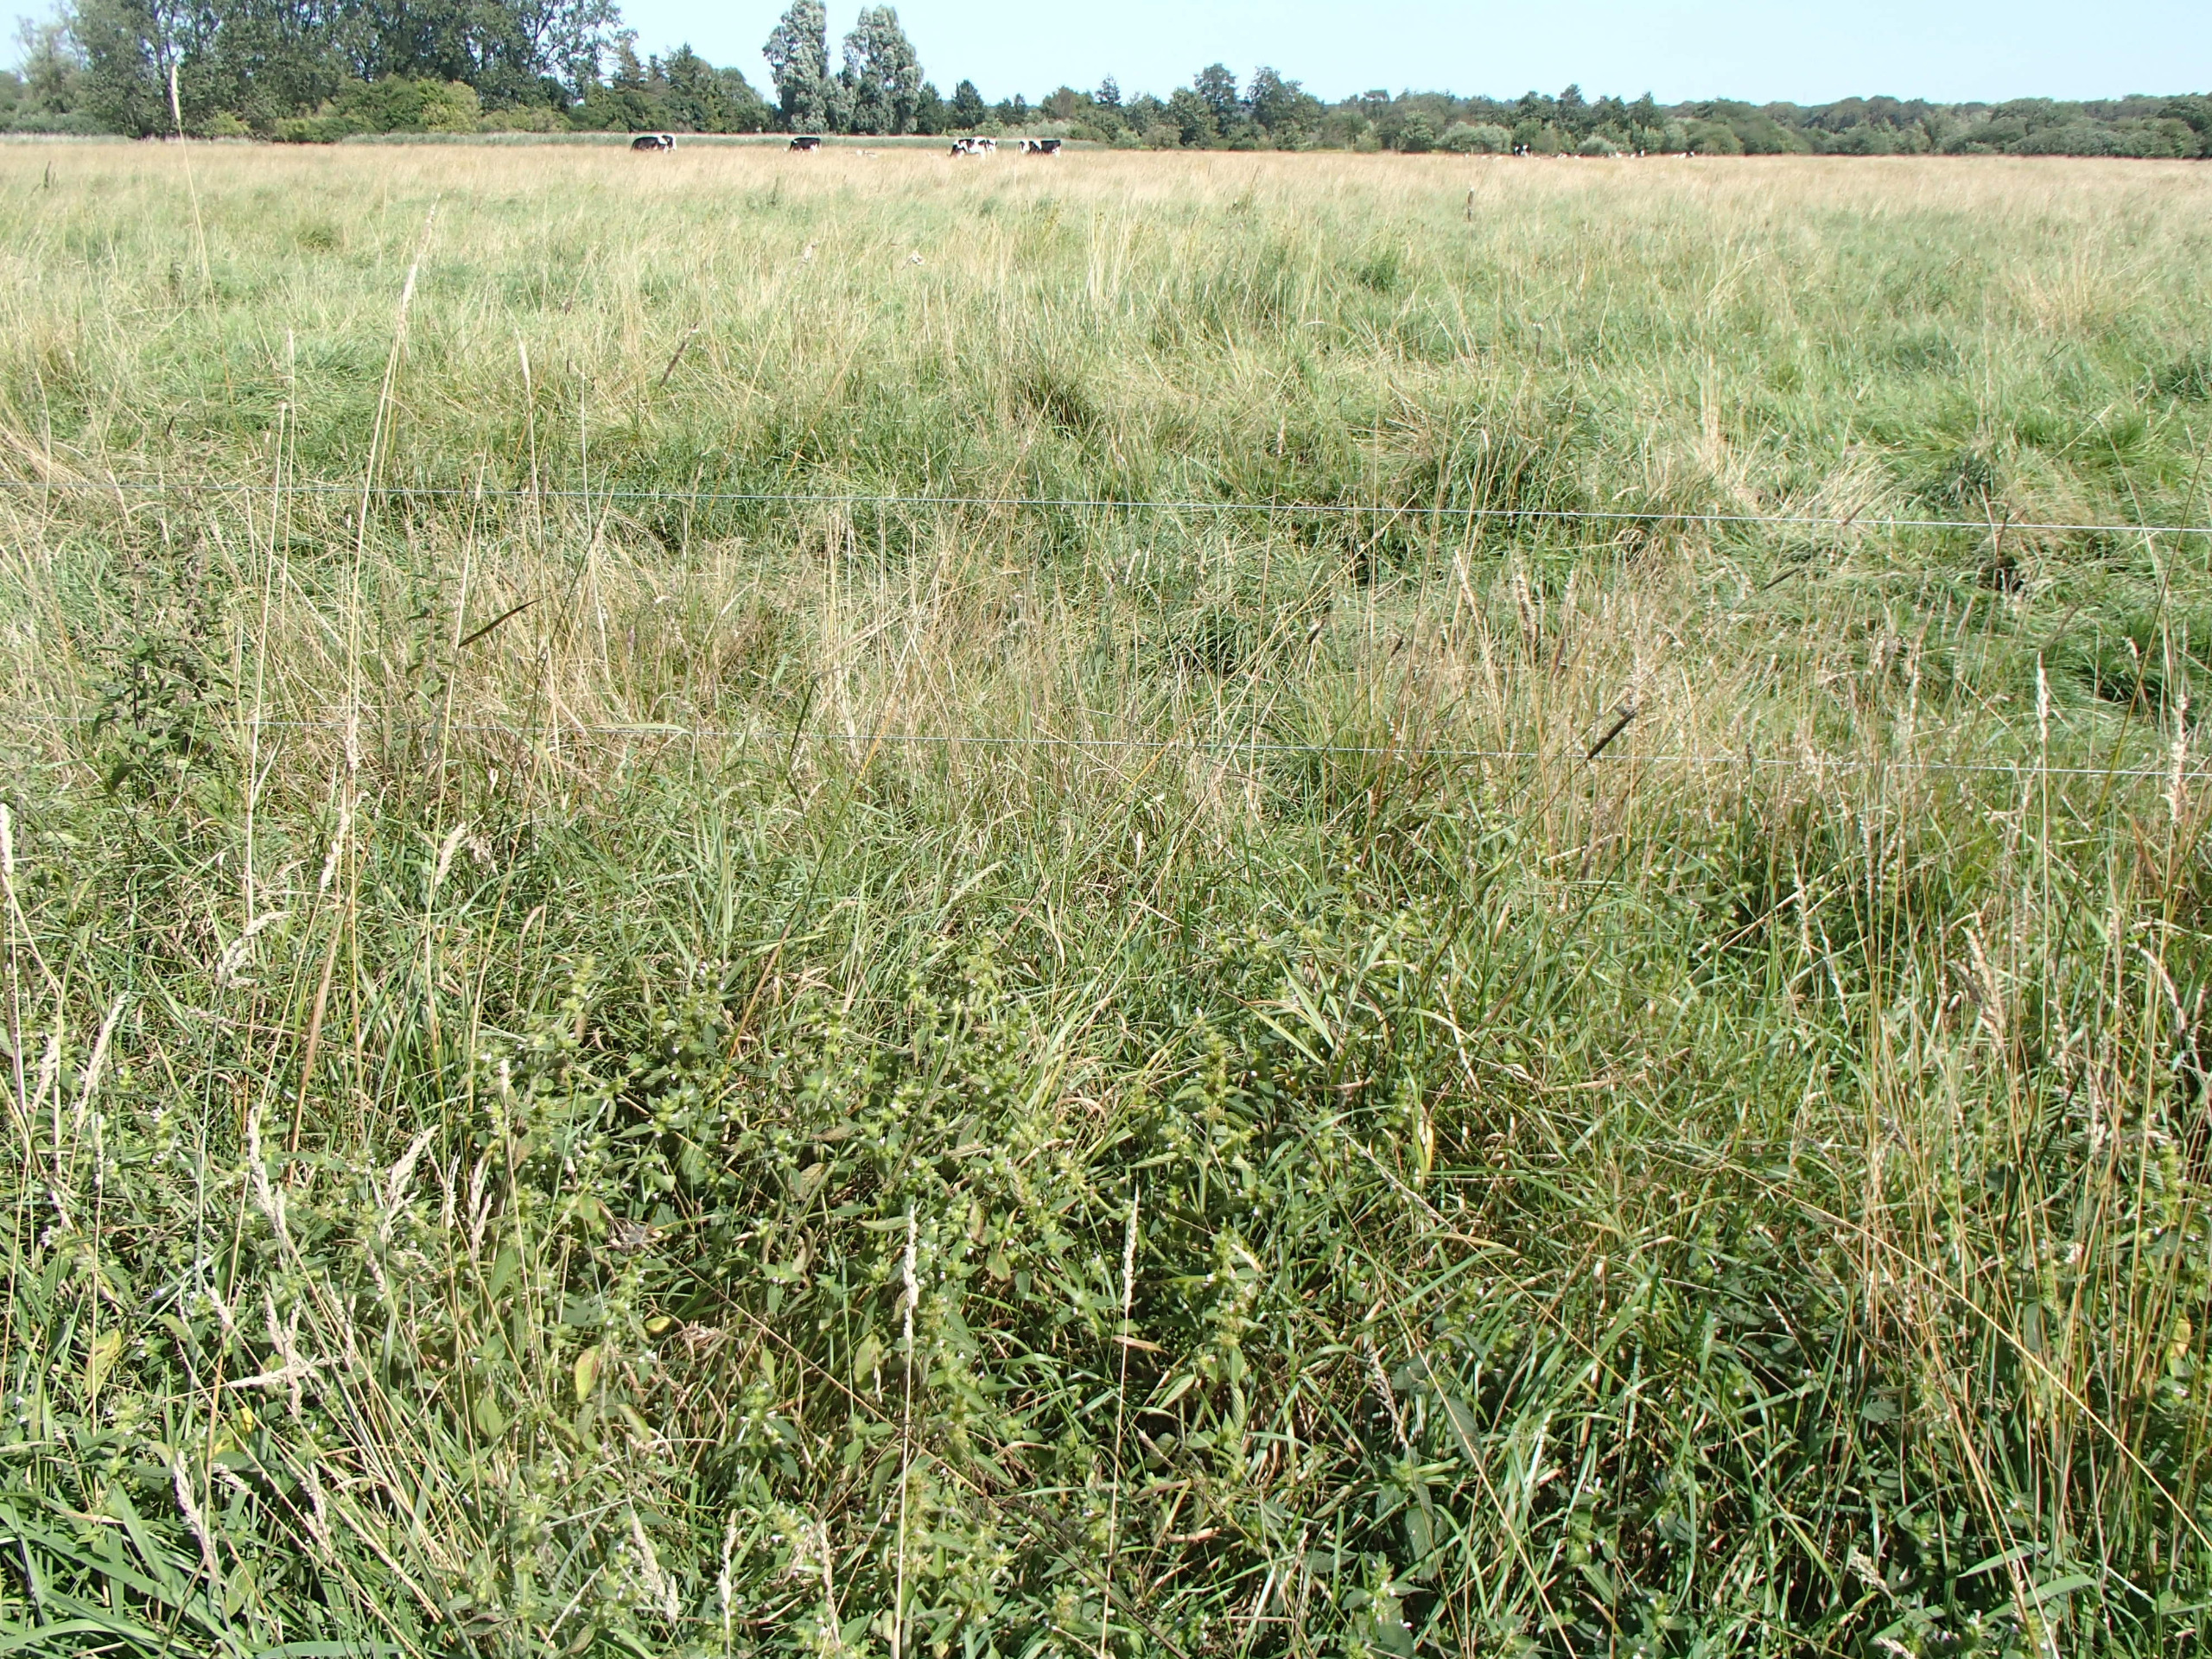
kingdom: Plantae
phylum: Tracheophyta
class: Magnoliopsida
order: Lamiales
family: Lamiaceae
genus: Galeopsis
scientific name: Galeopsis bifida
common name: Skov-hanekro
